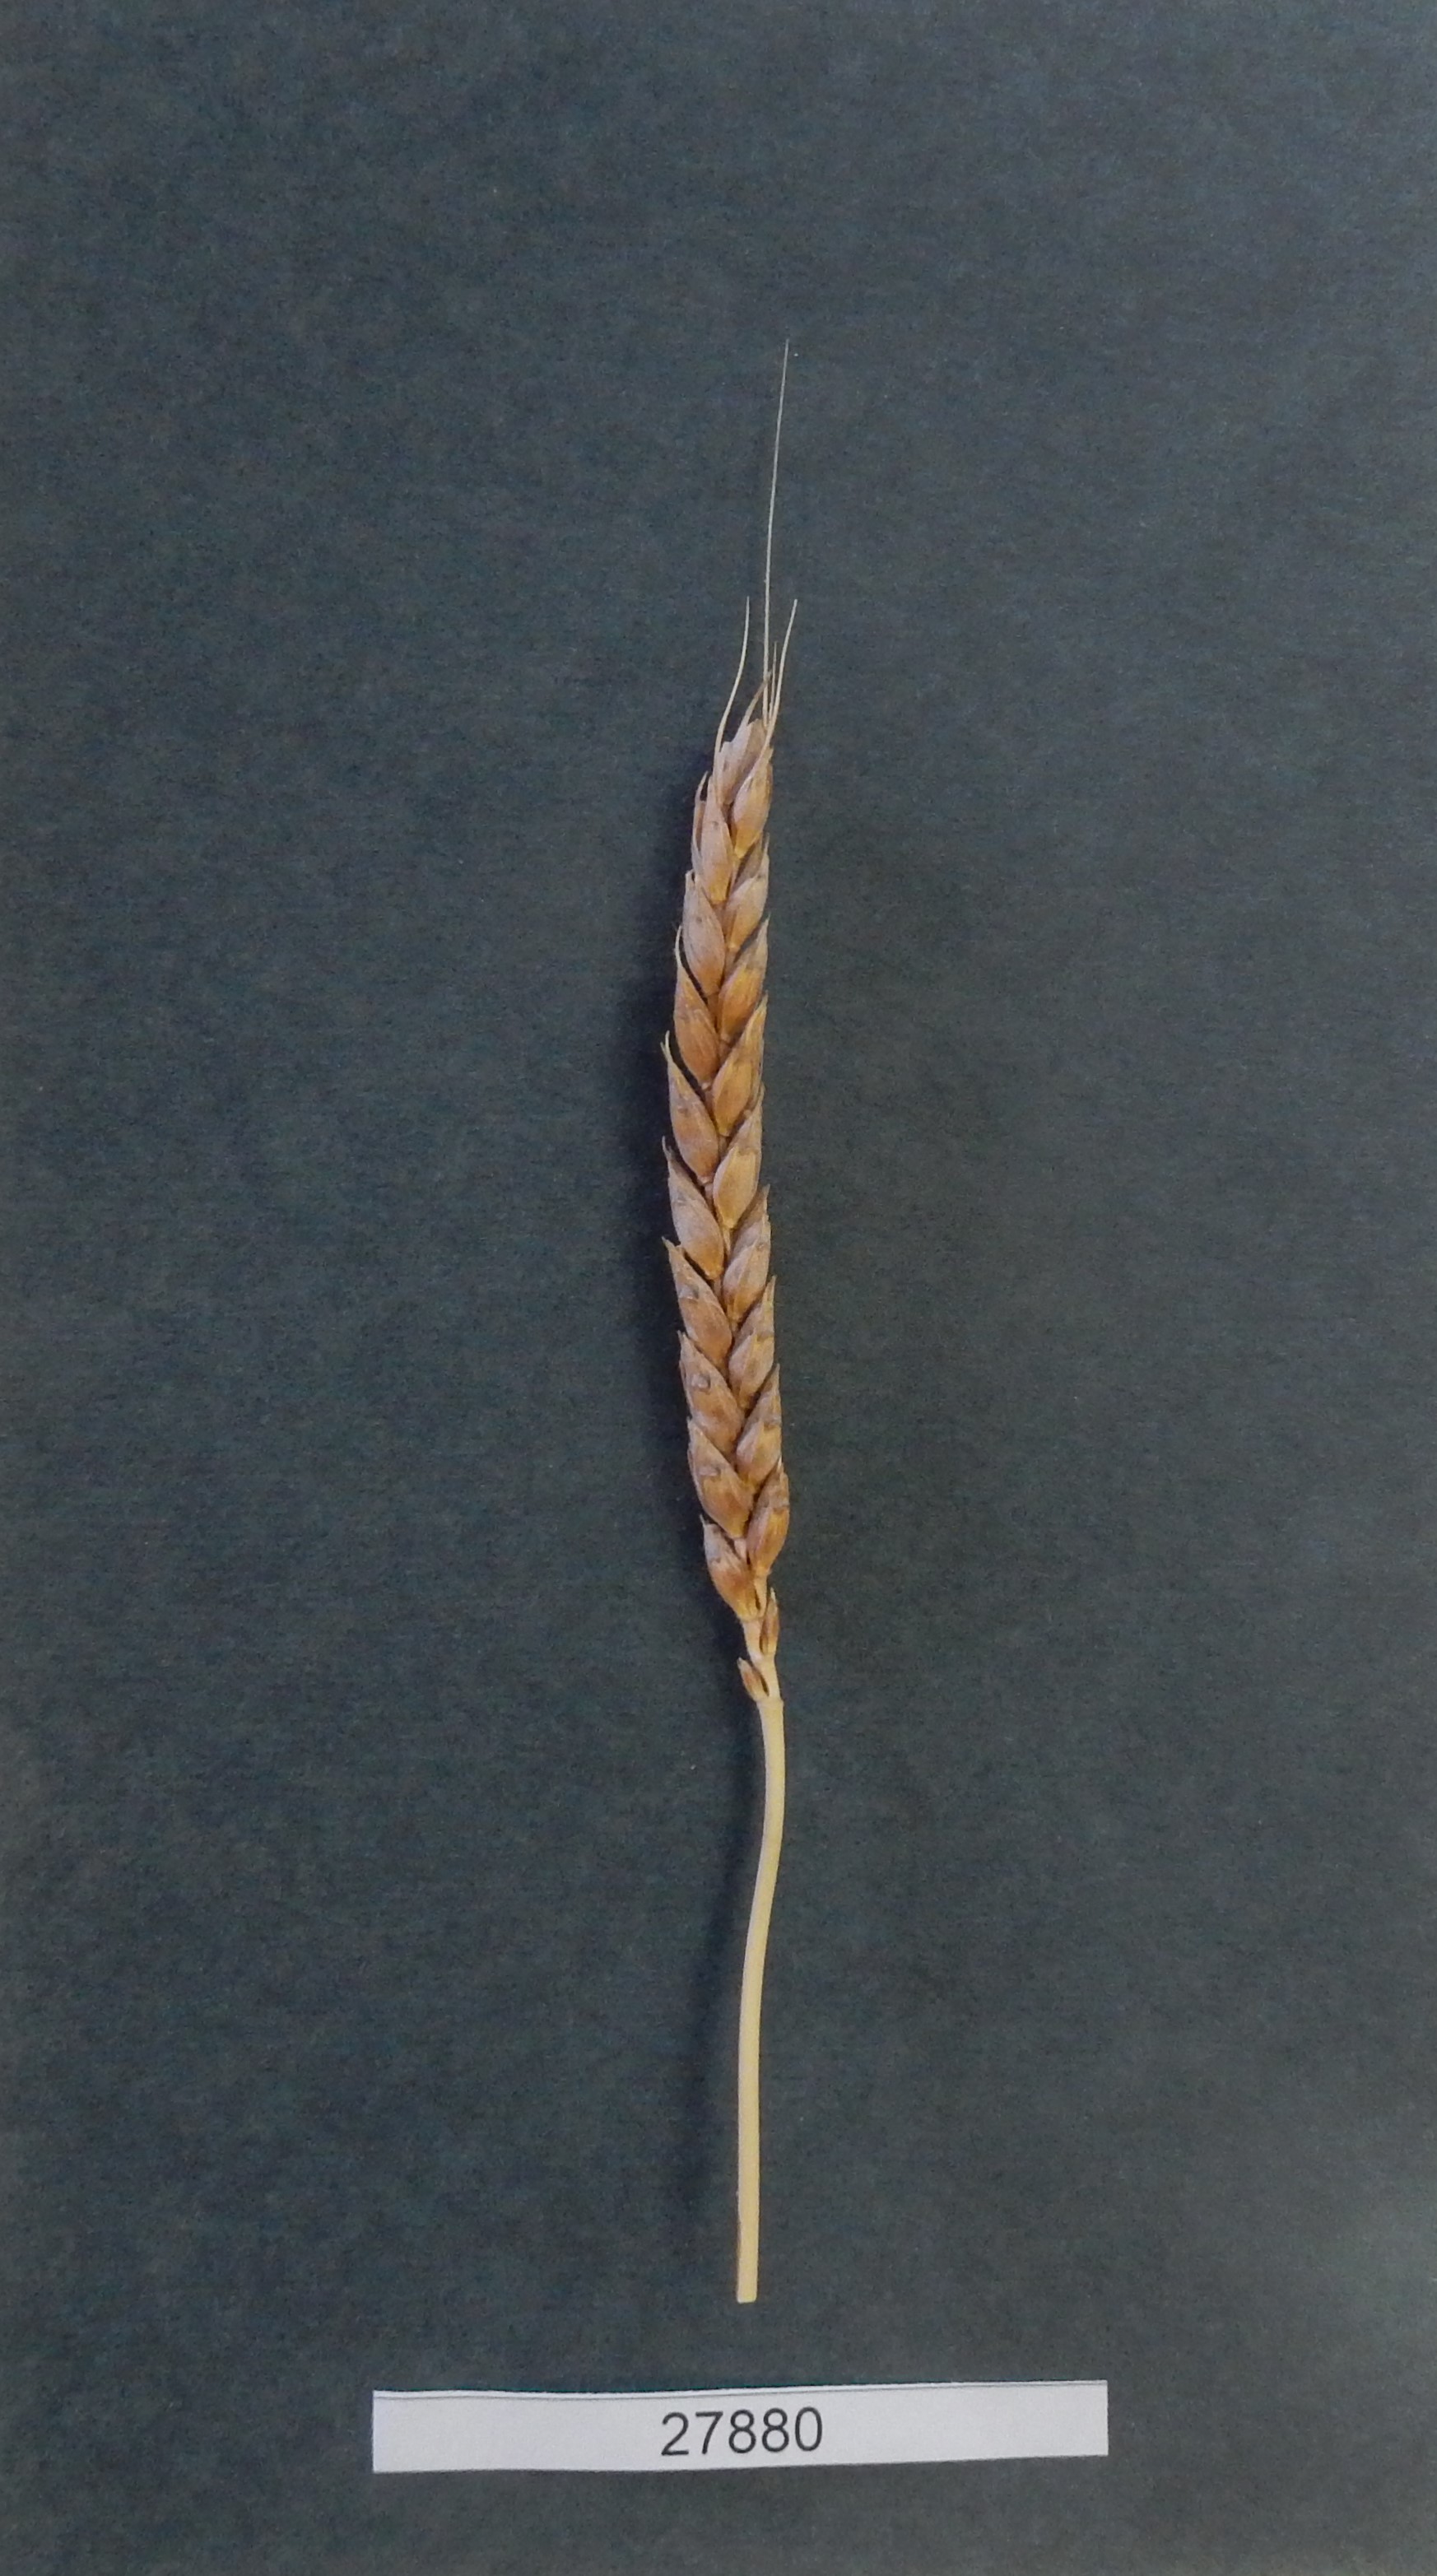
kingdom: Plantae
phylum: Tracheophyta
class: Liliopsida
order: Poales
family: Poaceae
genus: Triticum
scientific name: Triticum aestivum
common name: Common wheat
